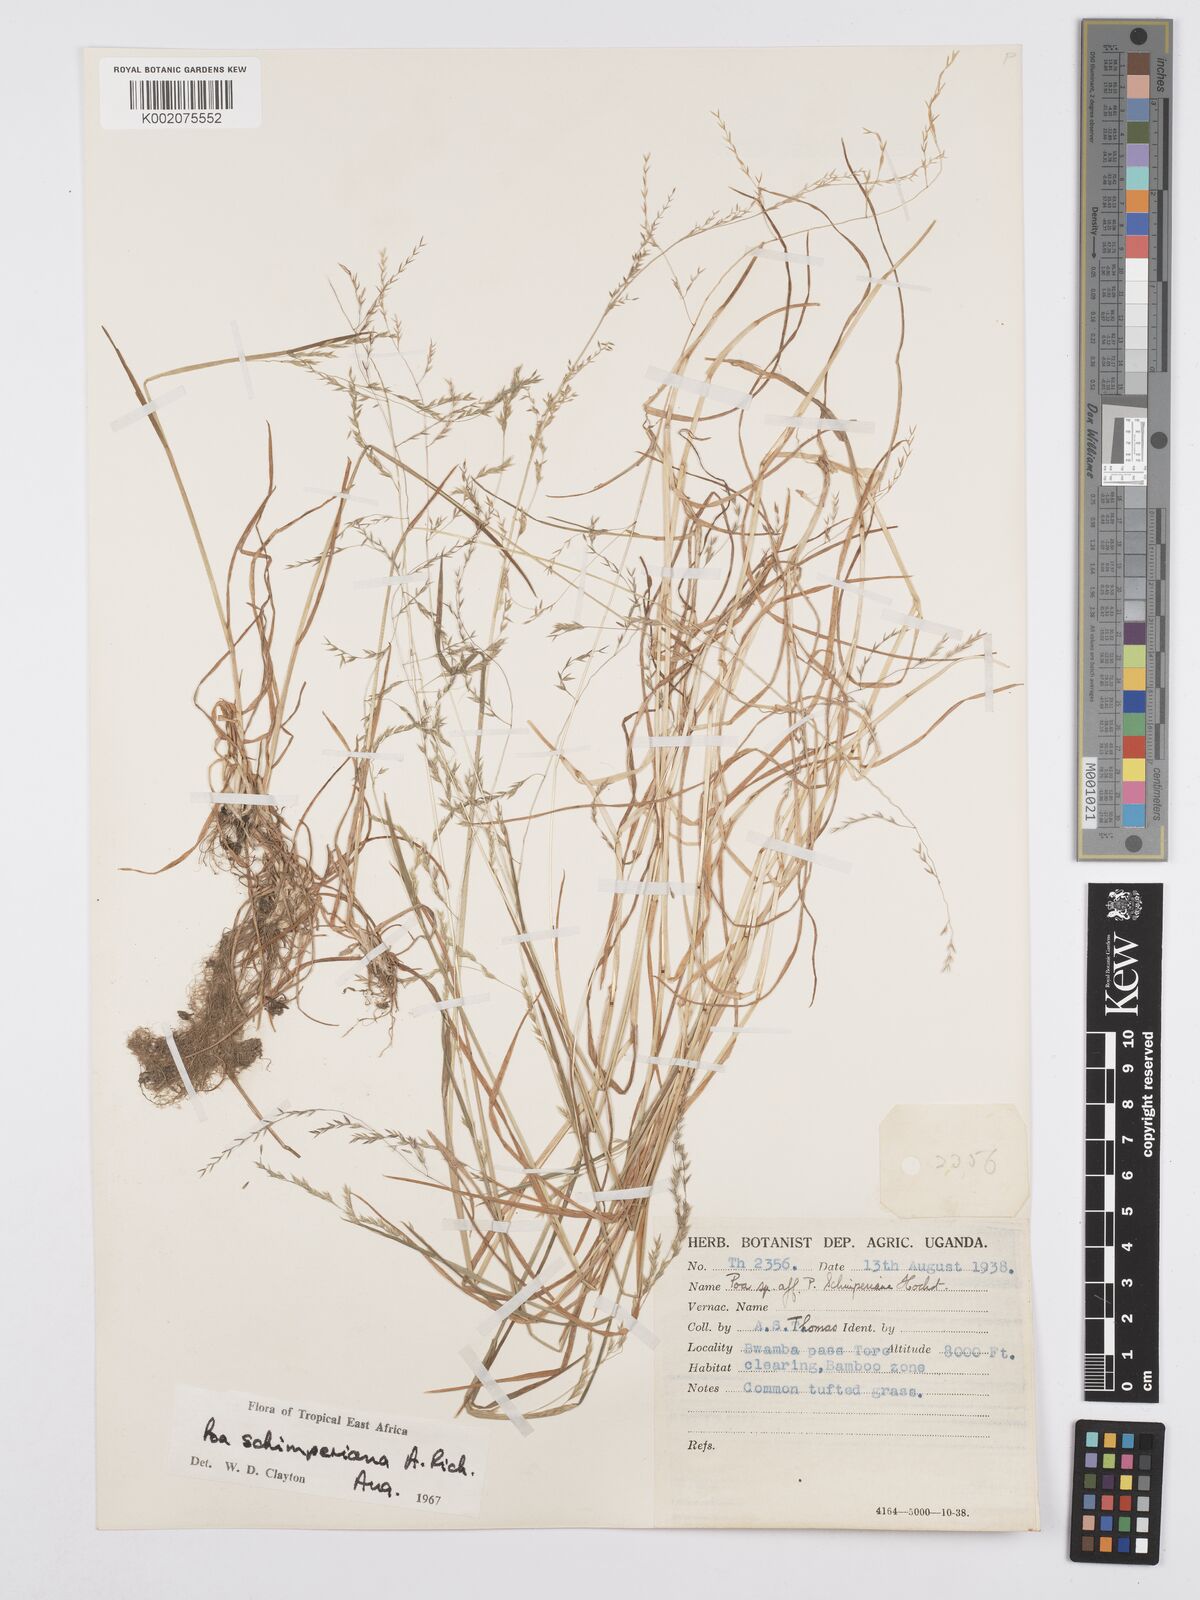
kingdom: Plantae
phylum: Tracheophyta
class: Liliopsida
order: Poales
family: Poaceae
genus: Poa
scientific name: Poa schimperiana
